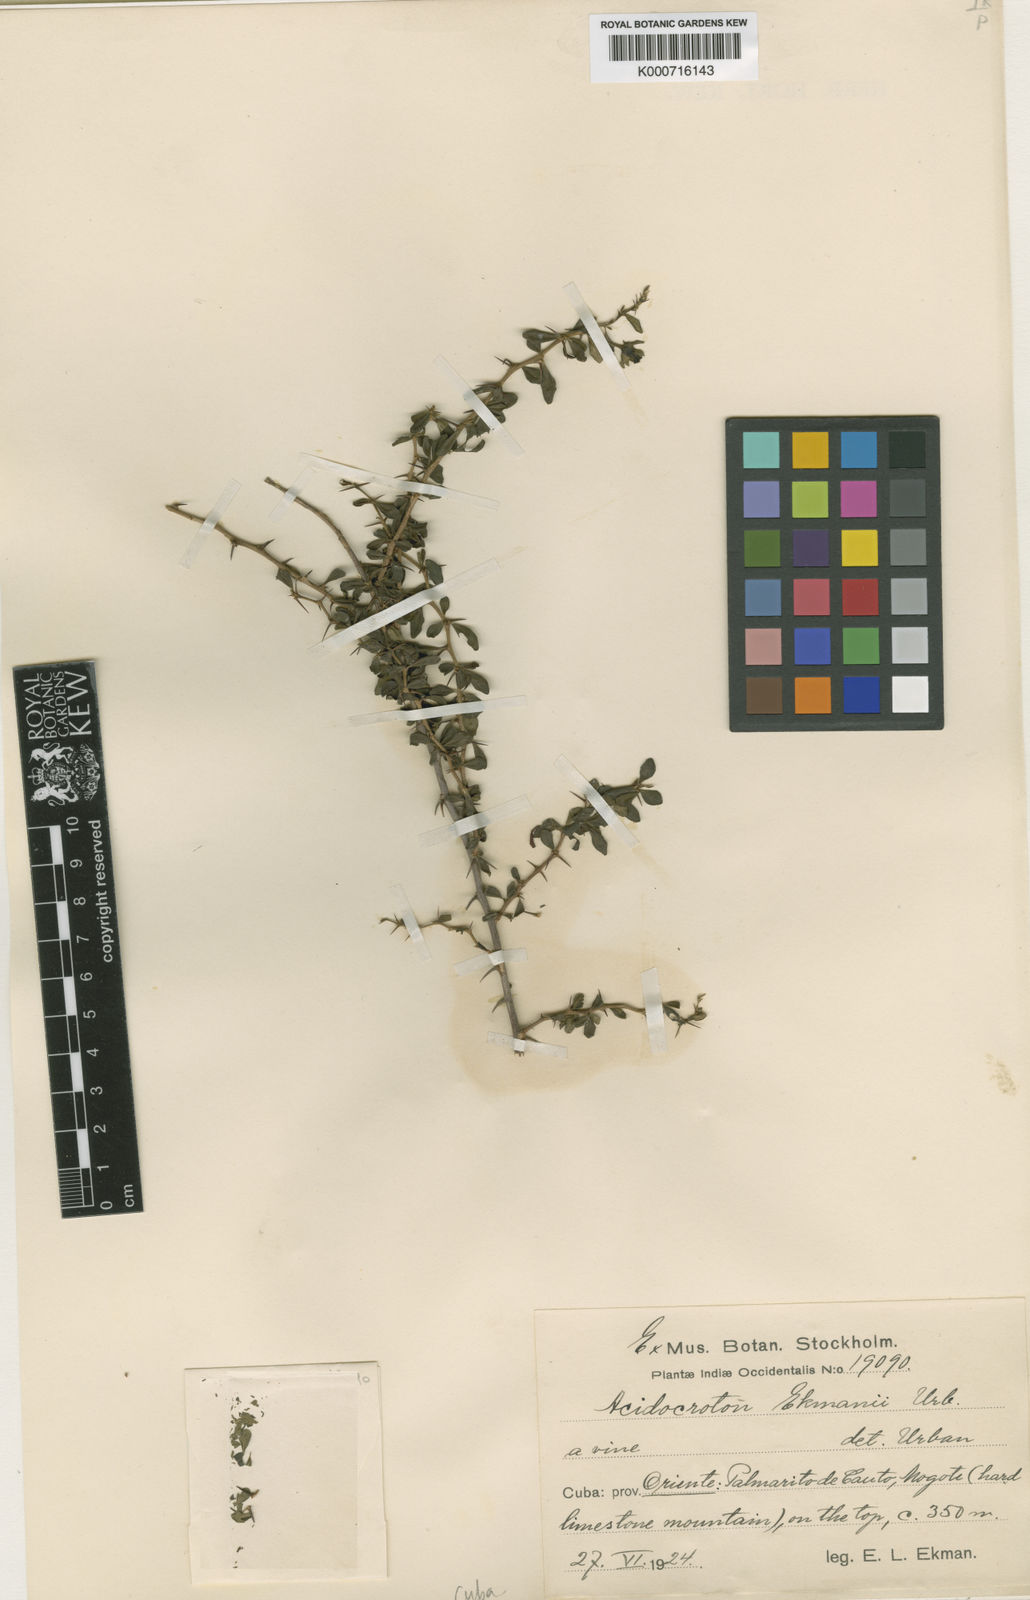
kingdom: Plantae
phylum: Tracheophyta
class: Magnoliopsida
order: Malpighiales
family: Euphorbiaceae
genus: Acidocroton
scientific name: Acidocroton ekmanii
